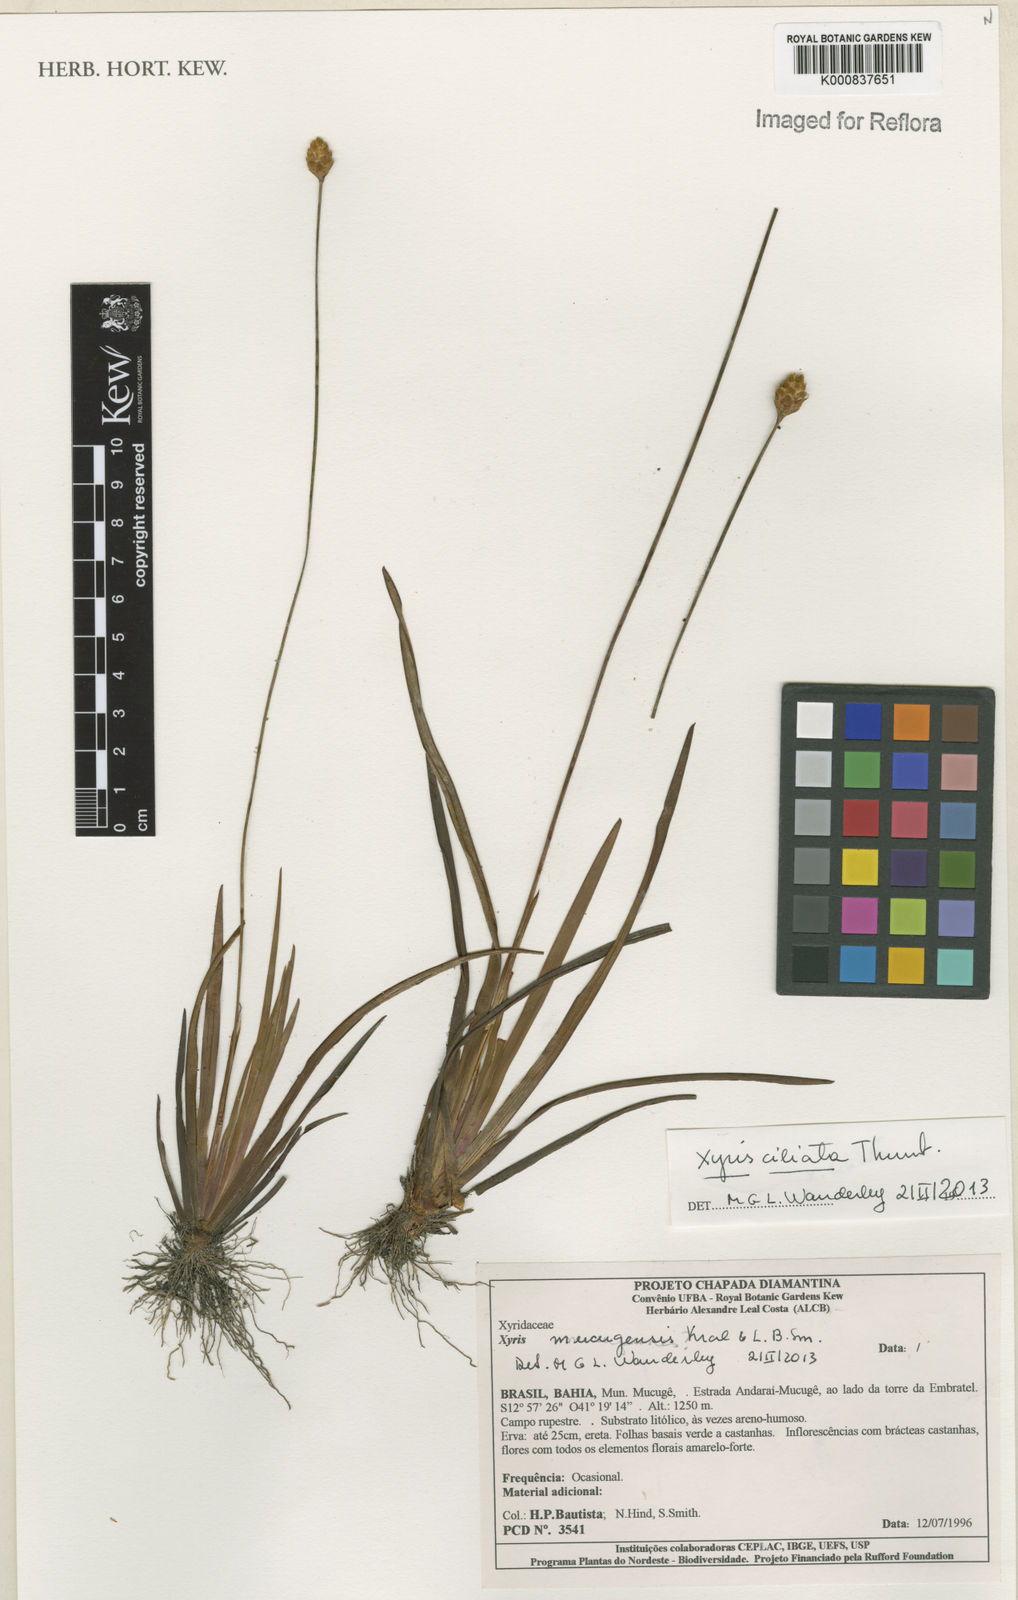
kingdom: Plantae
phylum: Tracheophyta
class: Liliopsida
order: Poales
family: Xyridaceae
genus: Xyris
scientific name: Xyris mucujensis
